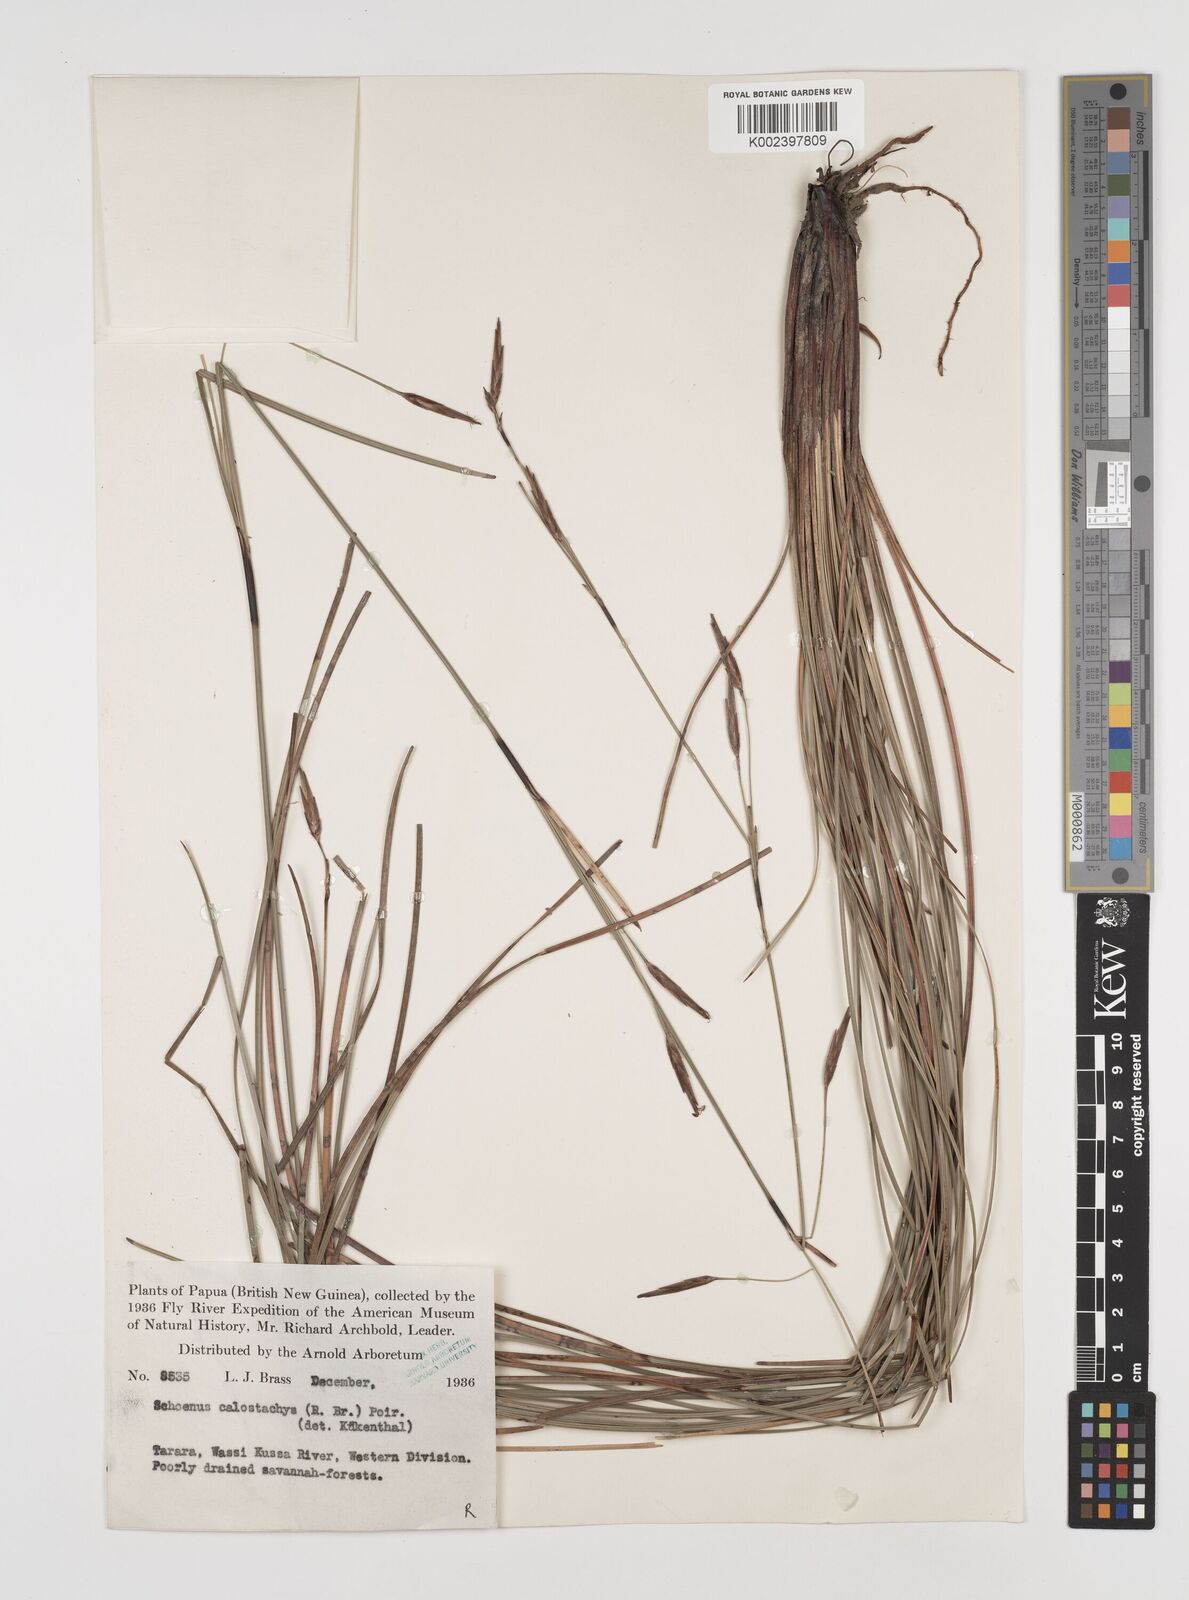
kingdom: Plantae
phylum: Tracheophyta
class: Liliopsida
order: Poales
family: Cyperaceae
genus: Schoenus
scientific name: Schoenus calostachyus
